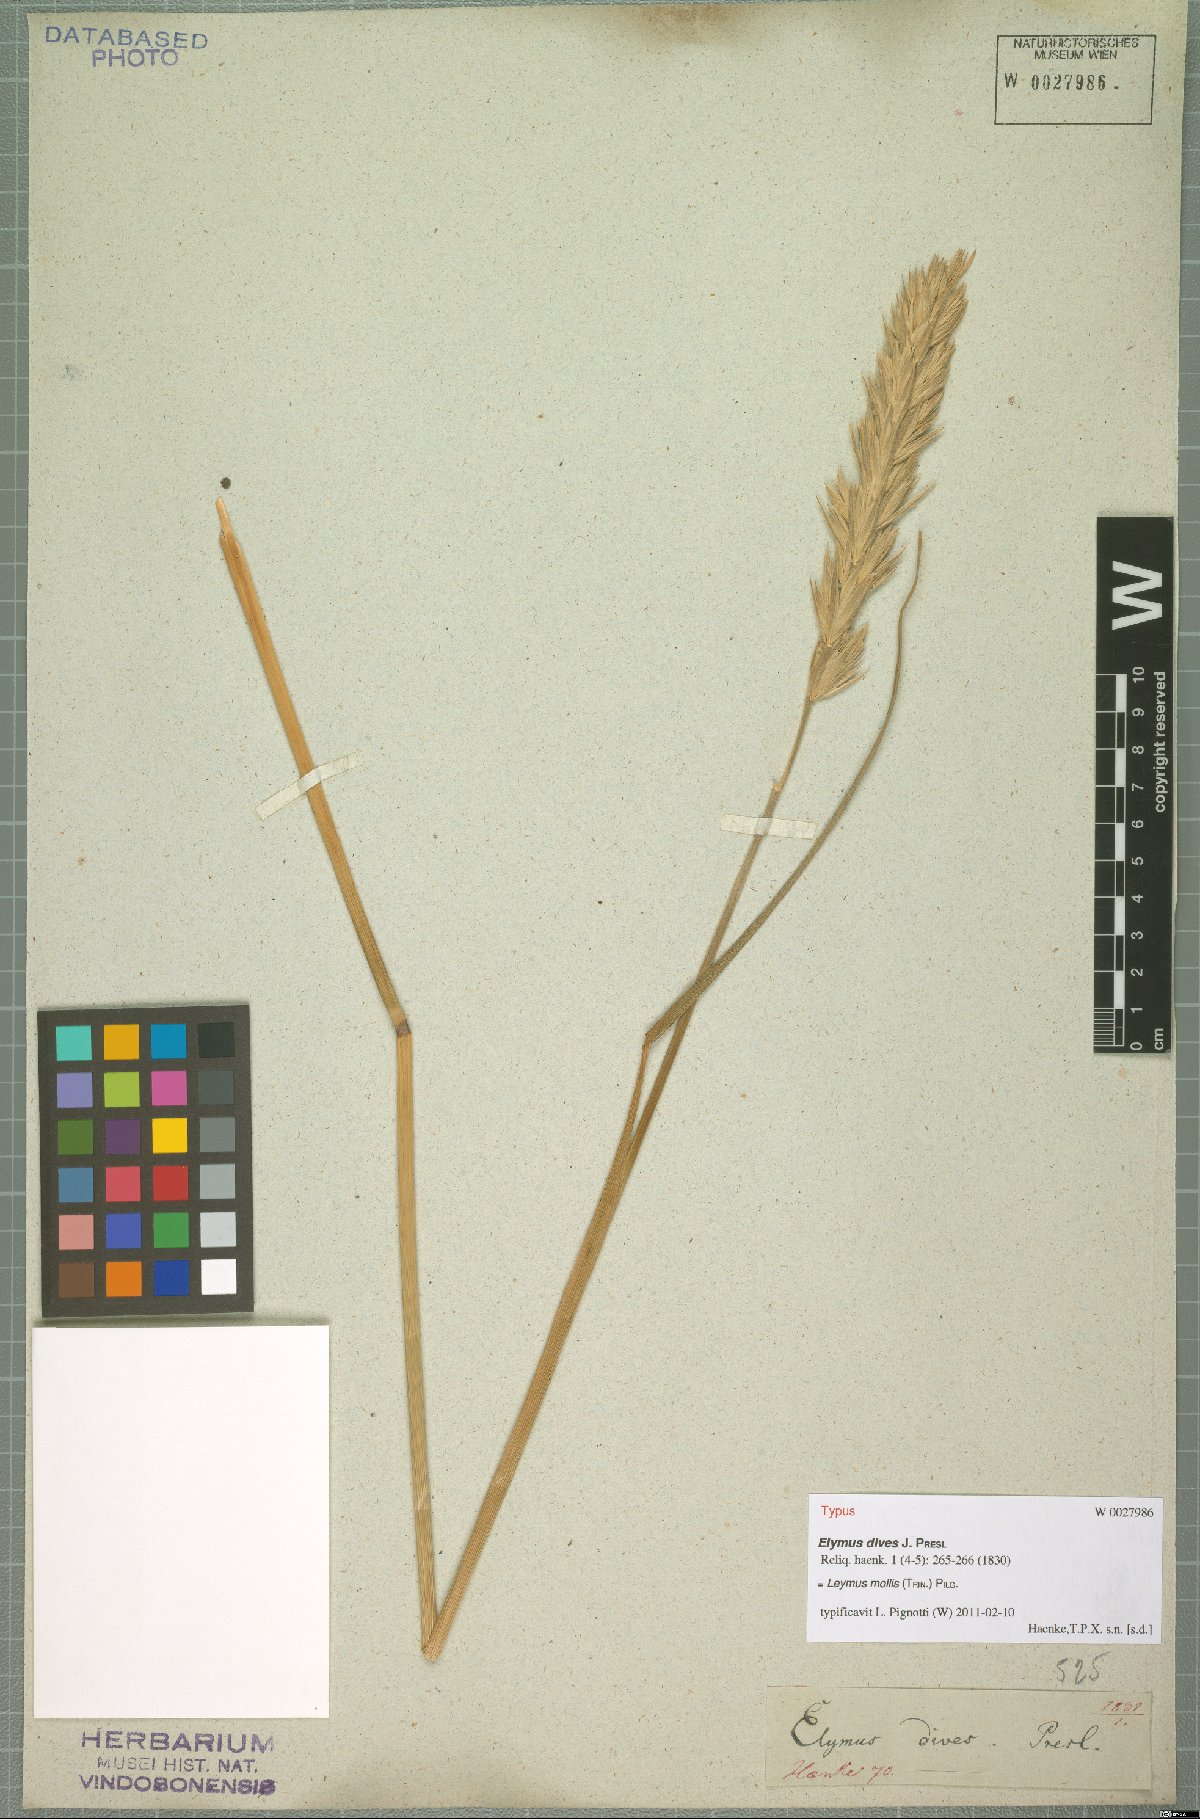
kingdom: Plantae
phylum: Tracheophyta
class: Liliopsida
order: Poales
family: Poaceae
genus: Leymus
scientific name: Leymus mollis
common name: American dune grass
